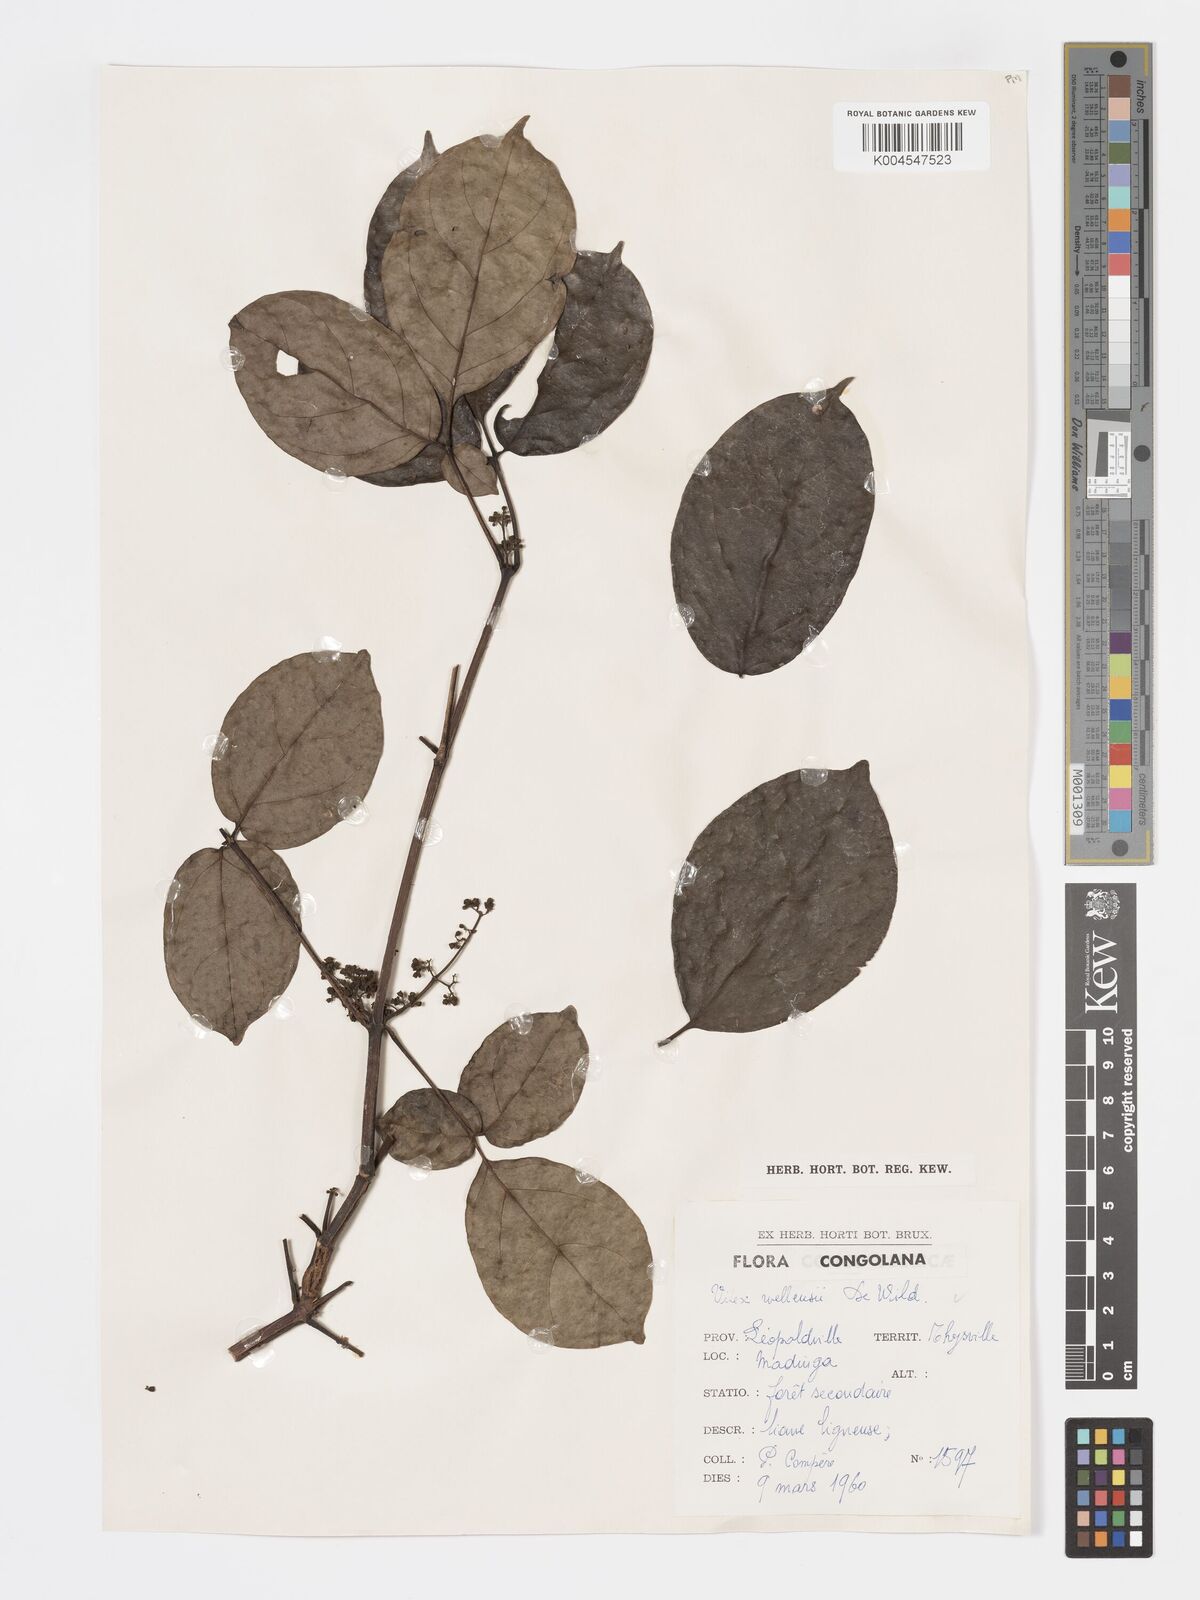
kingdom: Plantae
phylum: Tracheophyta
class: Magnoliopsida
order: Lamiales
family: Lamiaceae
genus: Vitex
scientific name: Vitex agelaeifolia
